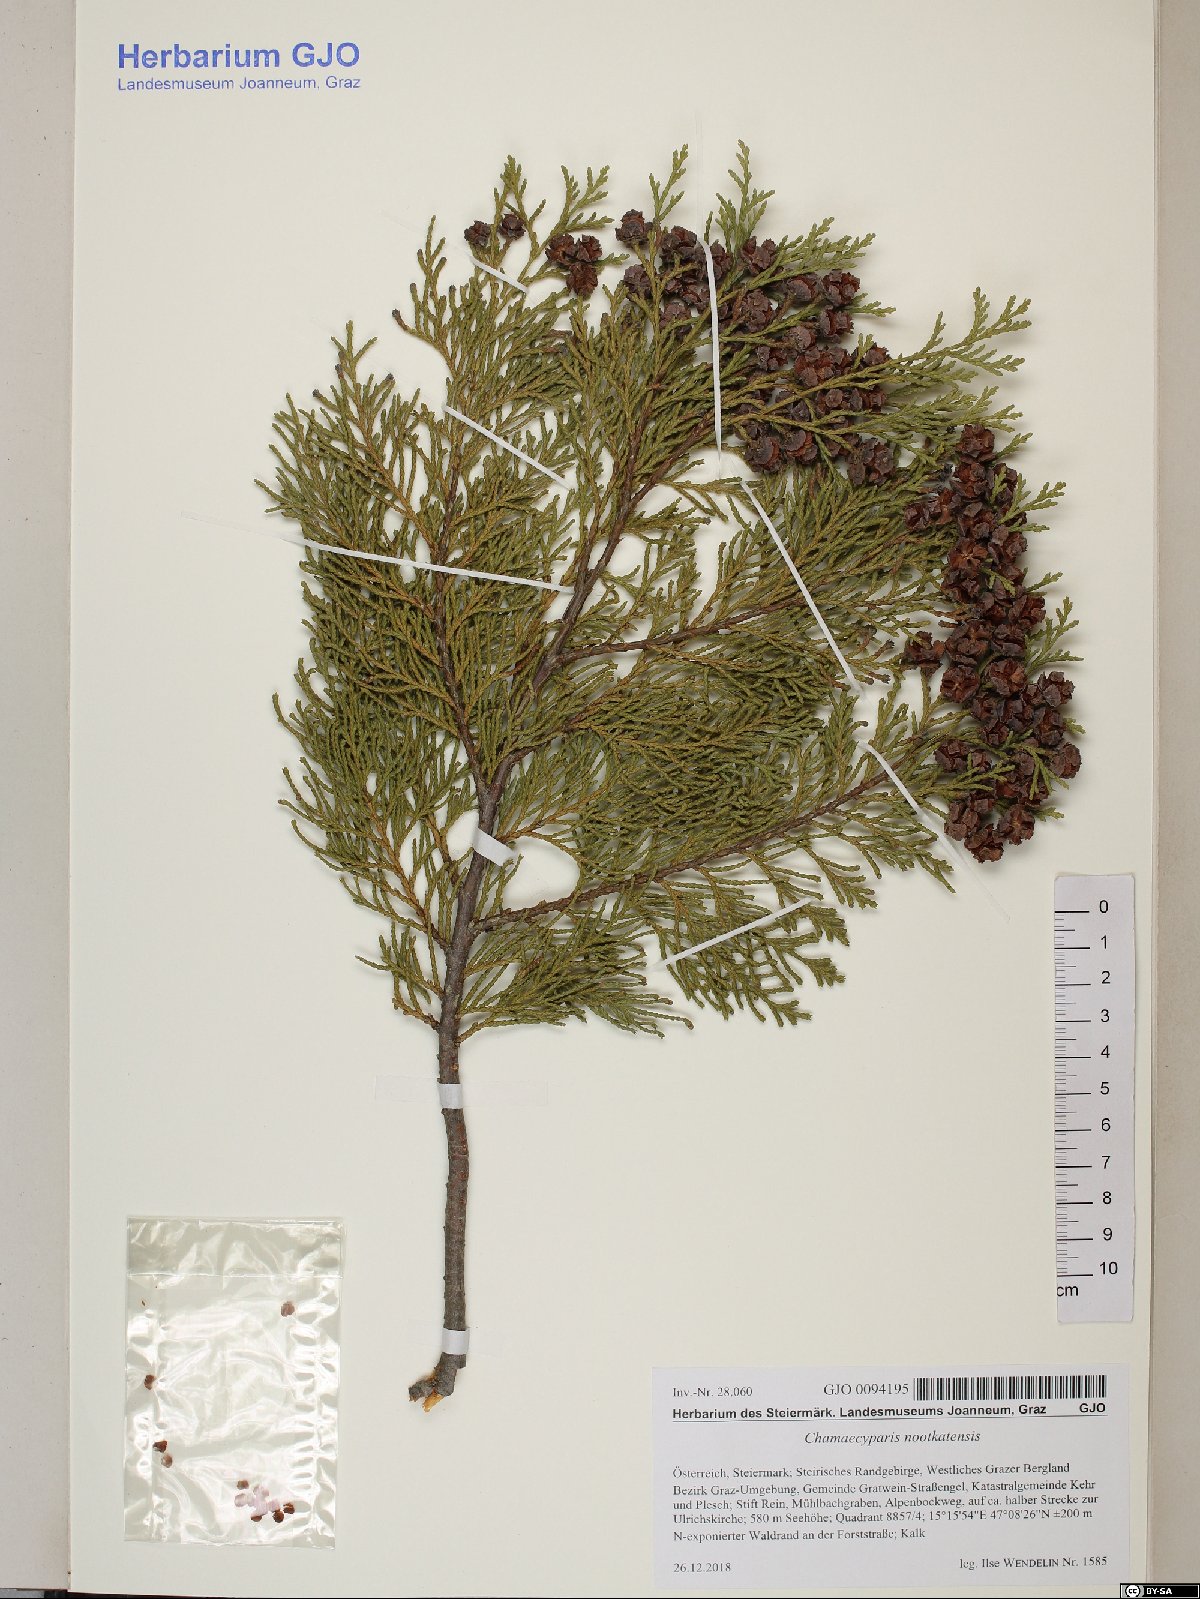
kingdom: Plantae
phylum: Tracheophyta
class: Pinopsida
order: Pinales
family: Cupressaceae
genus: Xanthocyparis
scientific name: Xanthocyparis nootkatensis
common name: Nootka cypress
